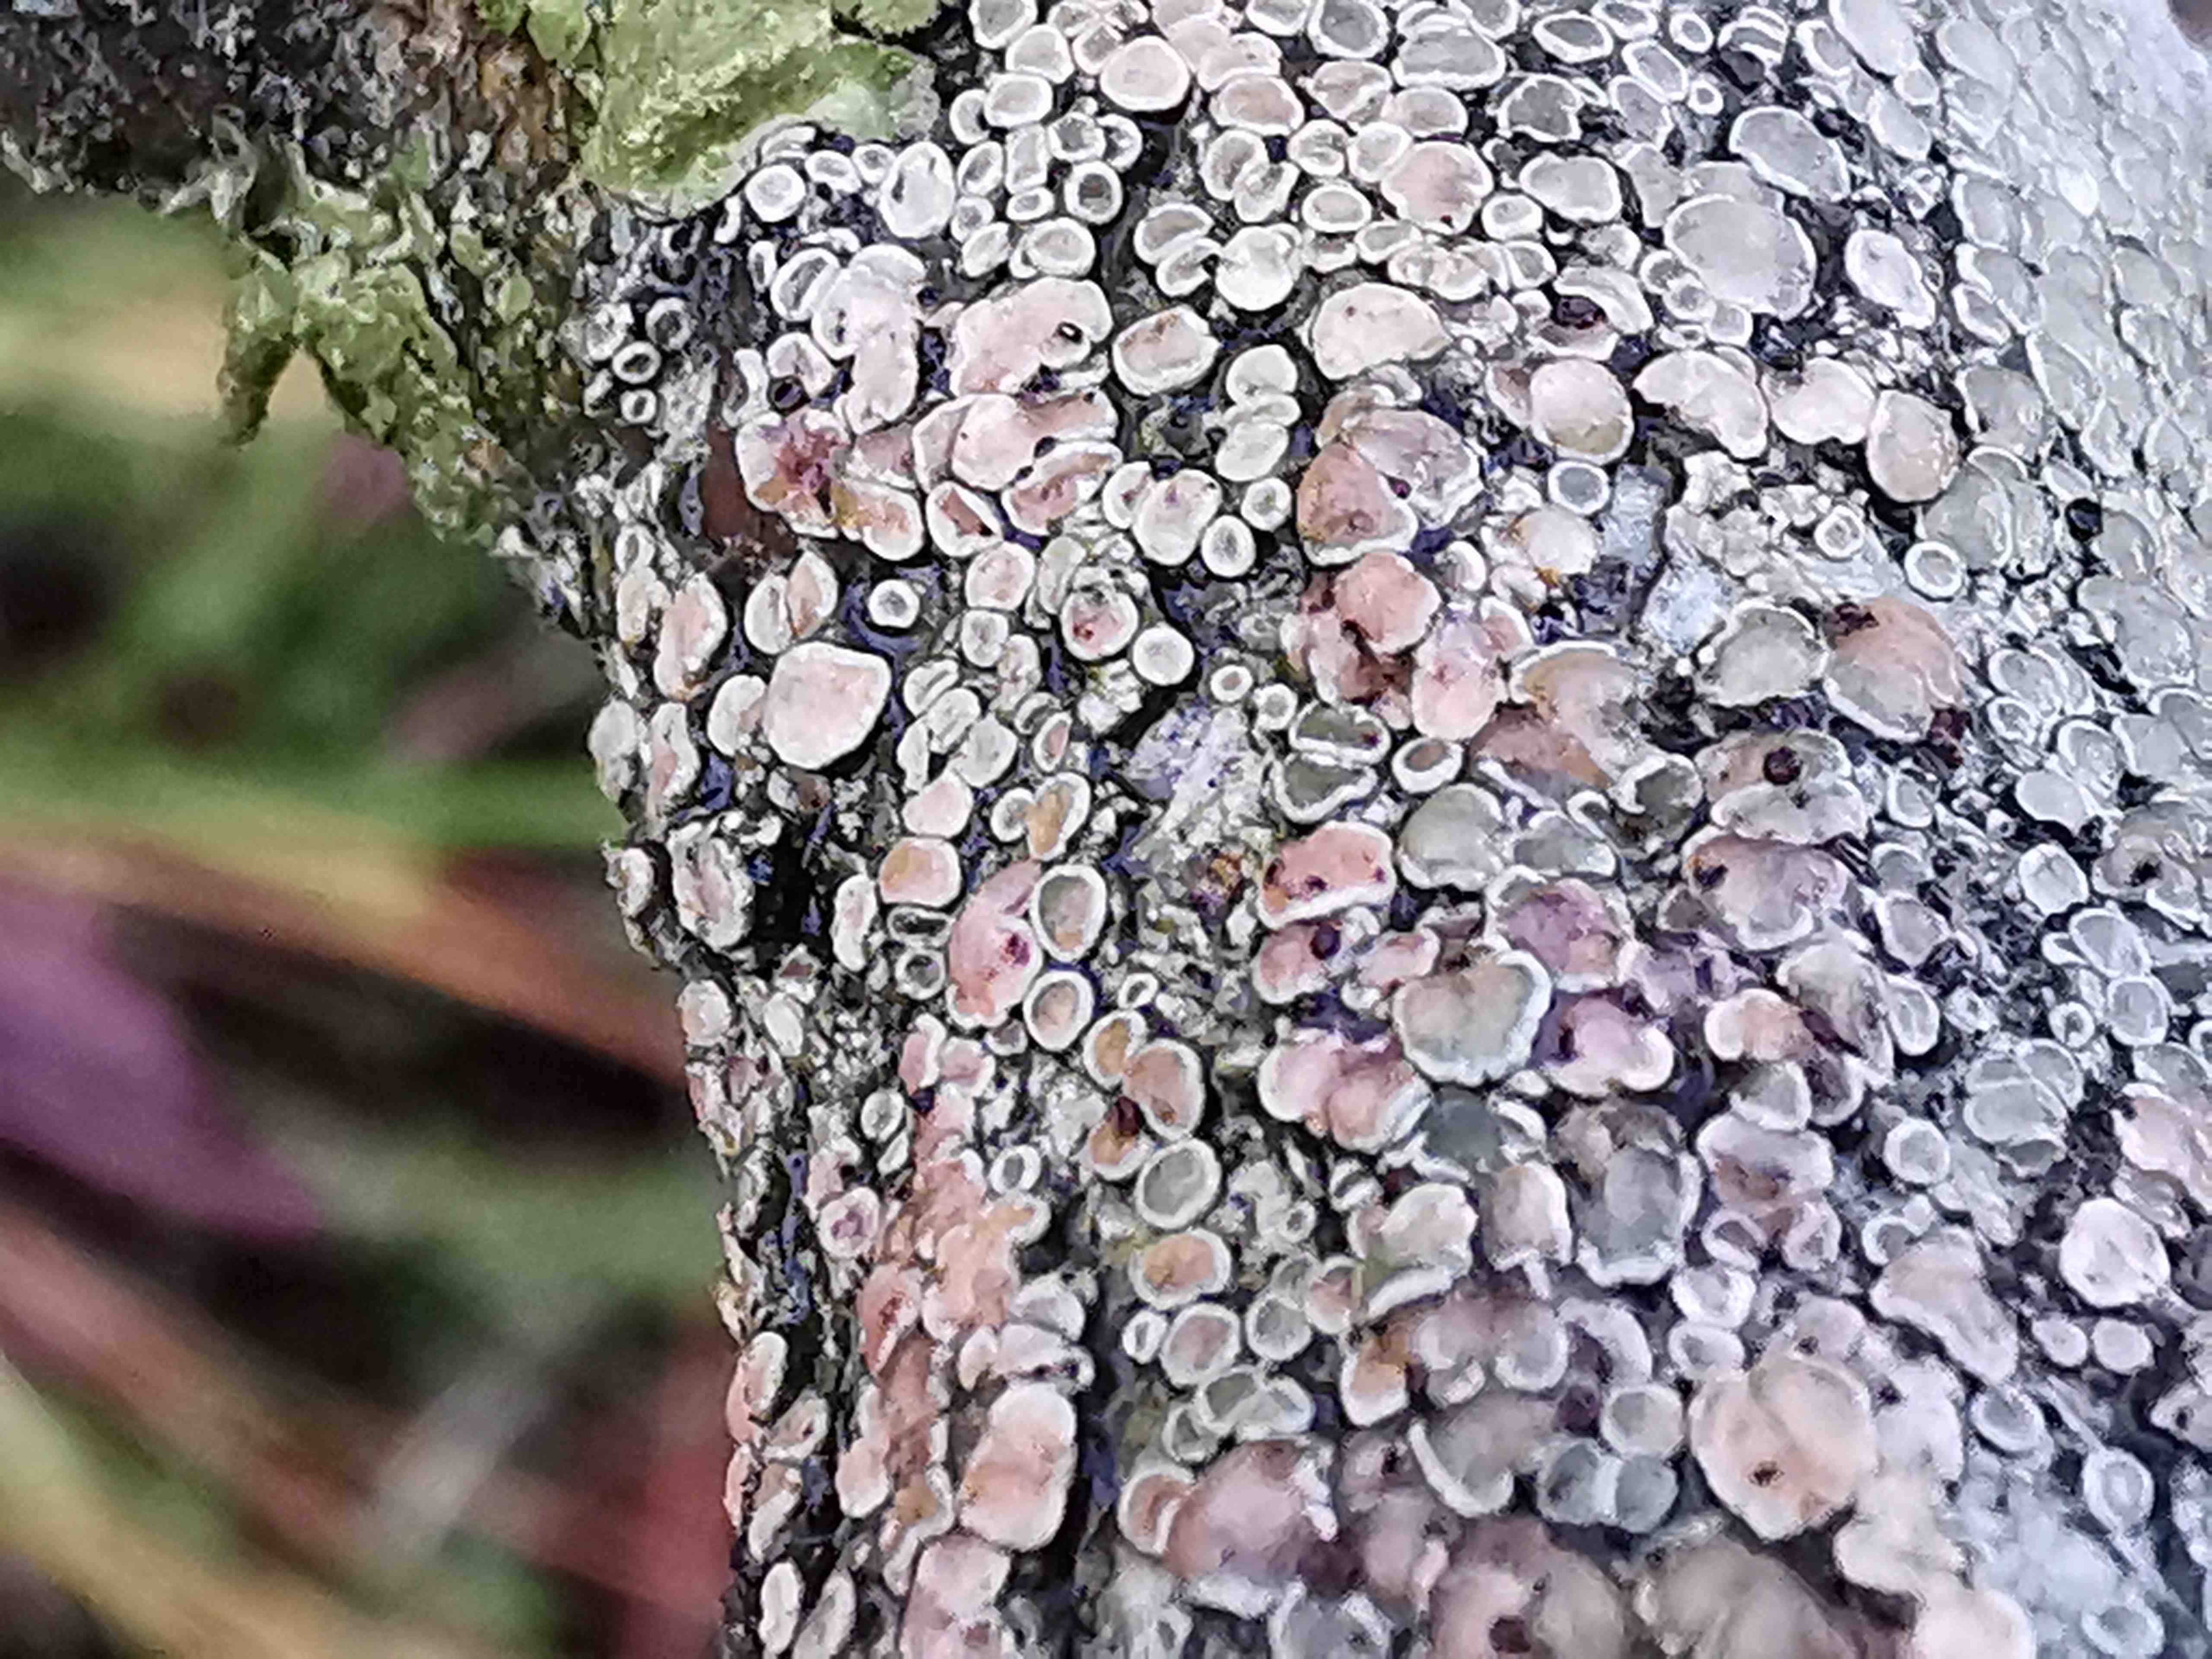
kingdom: Fungi
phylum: Ascomycota
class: Lecanoromycetes
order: Lecanorales
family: Lecanoraceae
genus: Lecanora
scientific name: Lecanora chlarotera
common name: brun kantskivelav
